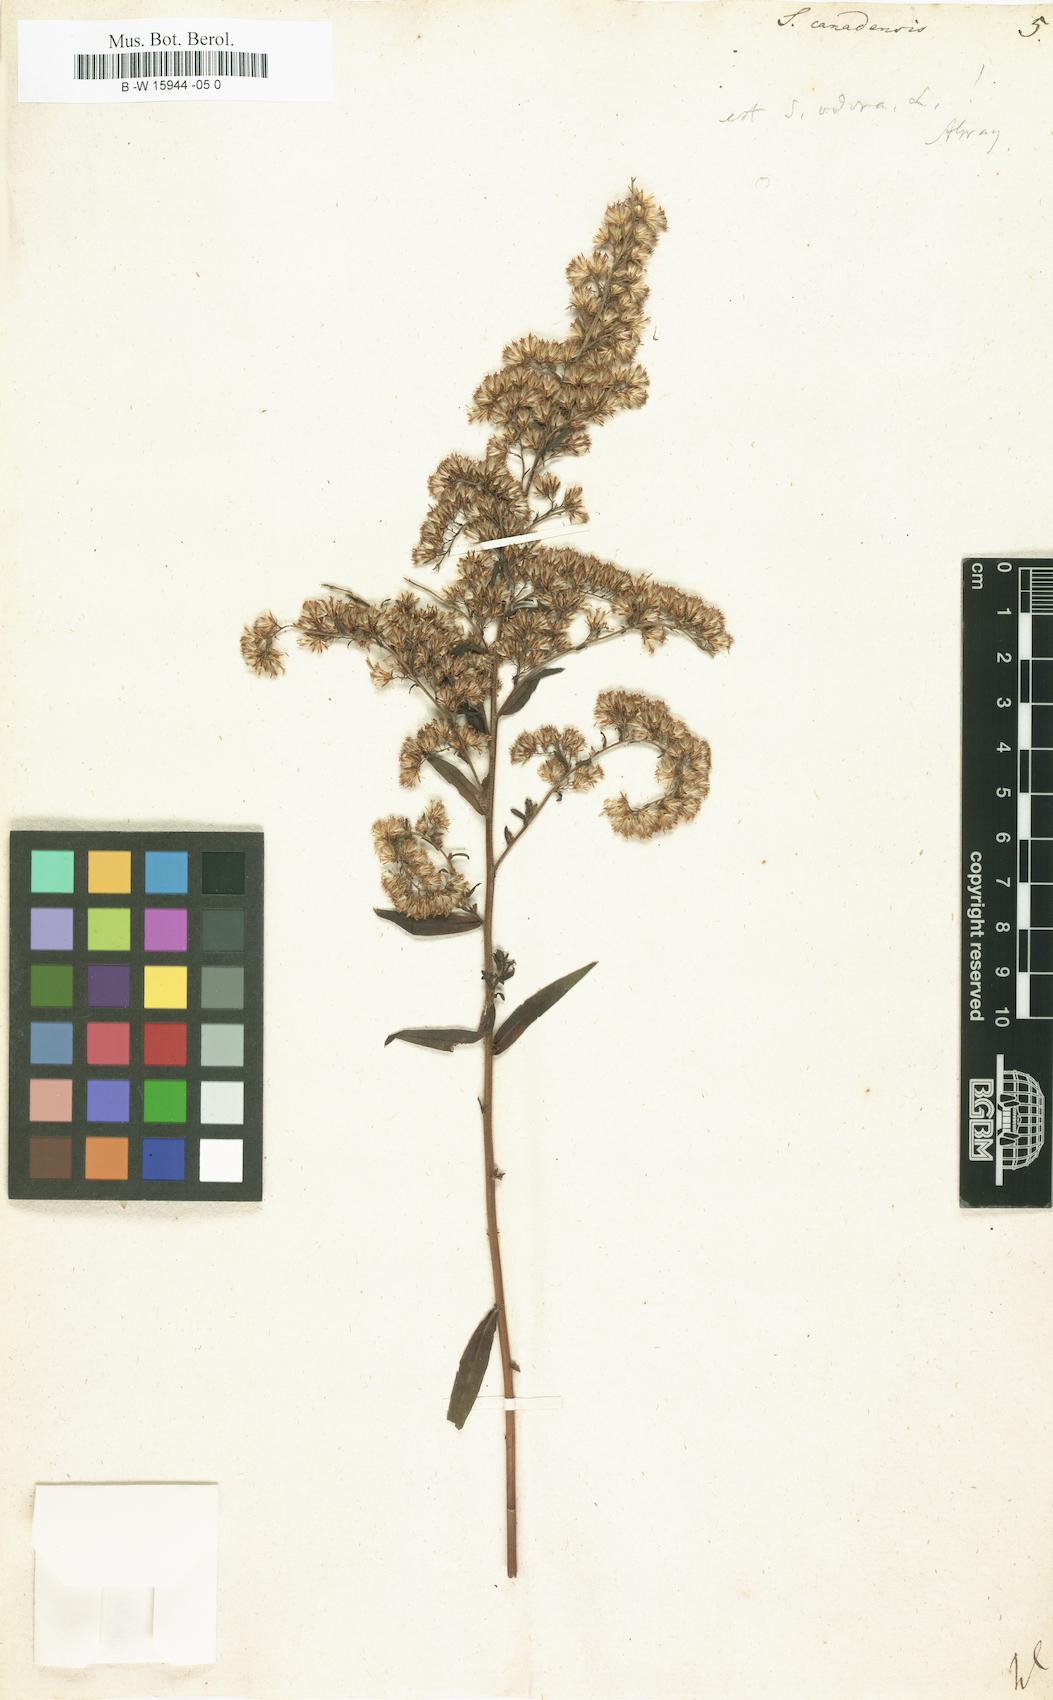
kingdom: Plantae
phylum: Tracheophyta
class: Magnoliopsida
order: Asterales
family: Asteraceae
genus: Solidago
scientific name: Solidago canadensis
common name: Canada goldenrod
